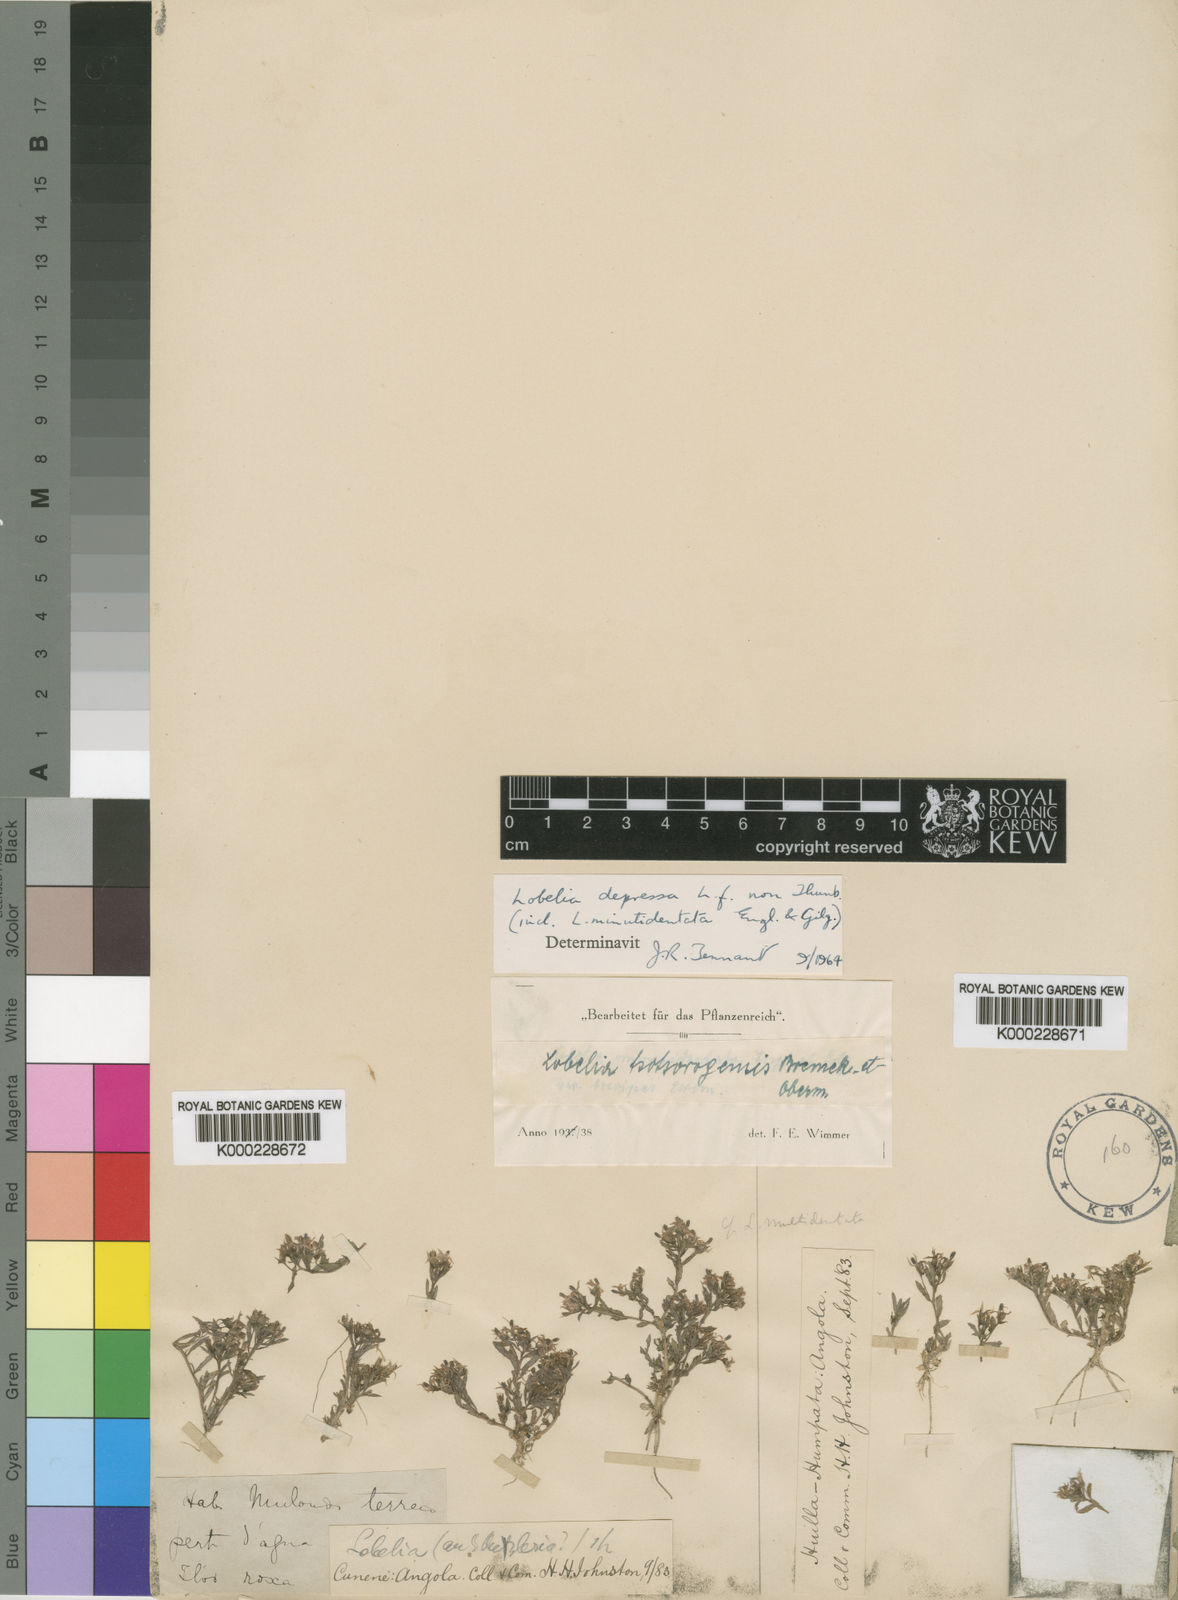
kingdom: Plantae
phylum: Tracheophyta
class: Magnoliopsida
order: Asterales
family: Campanulaceae
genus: Lobelia
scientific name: Lobelia sonderiana
